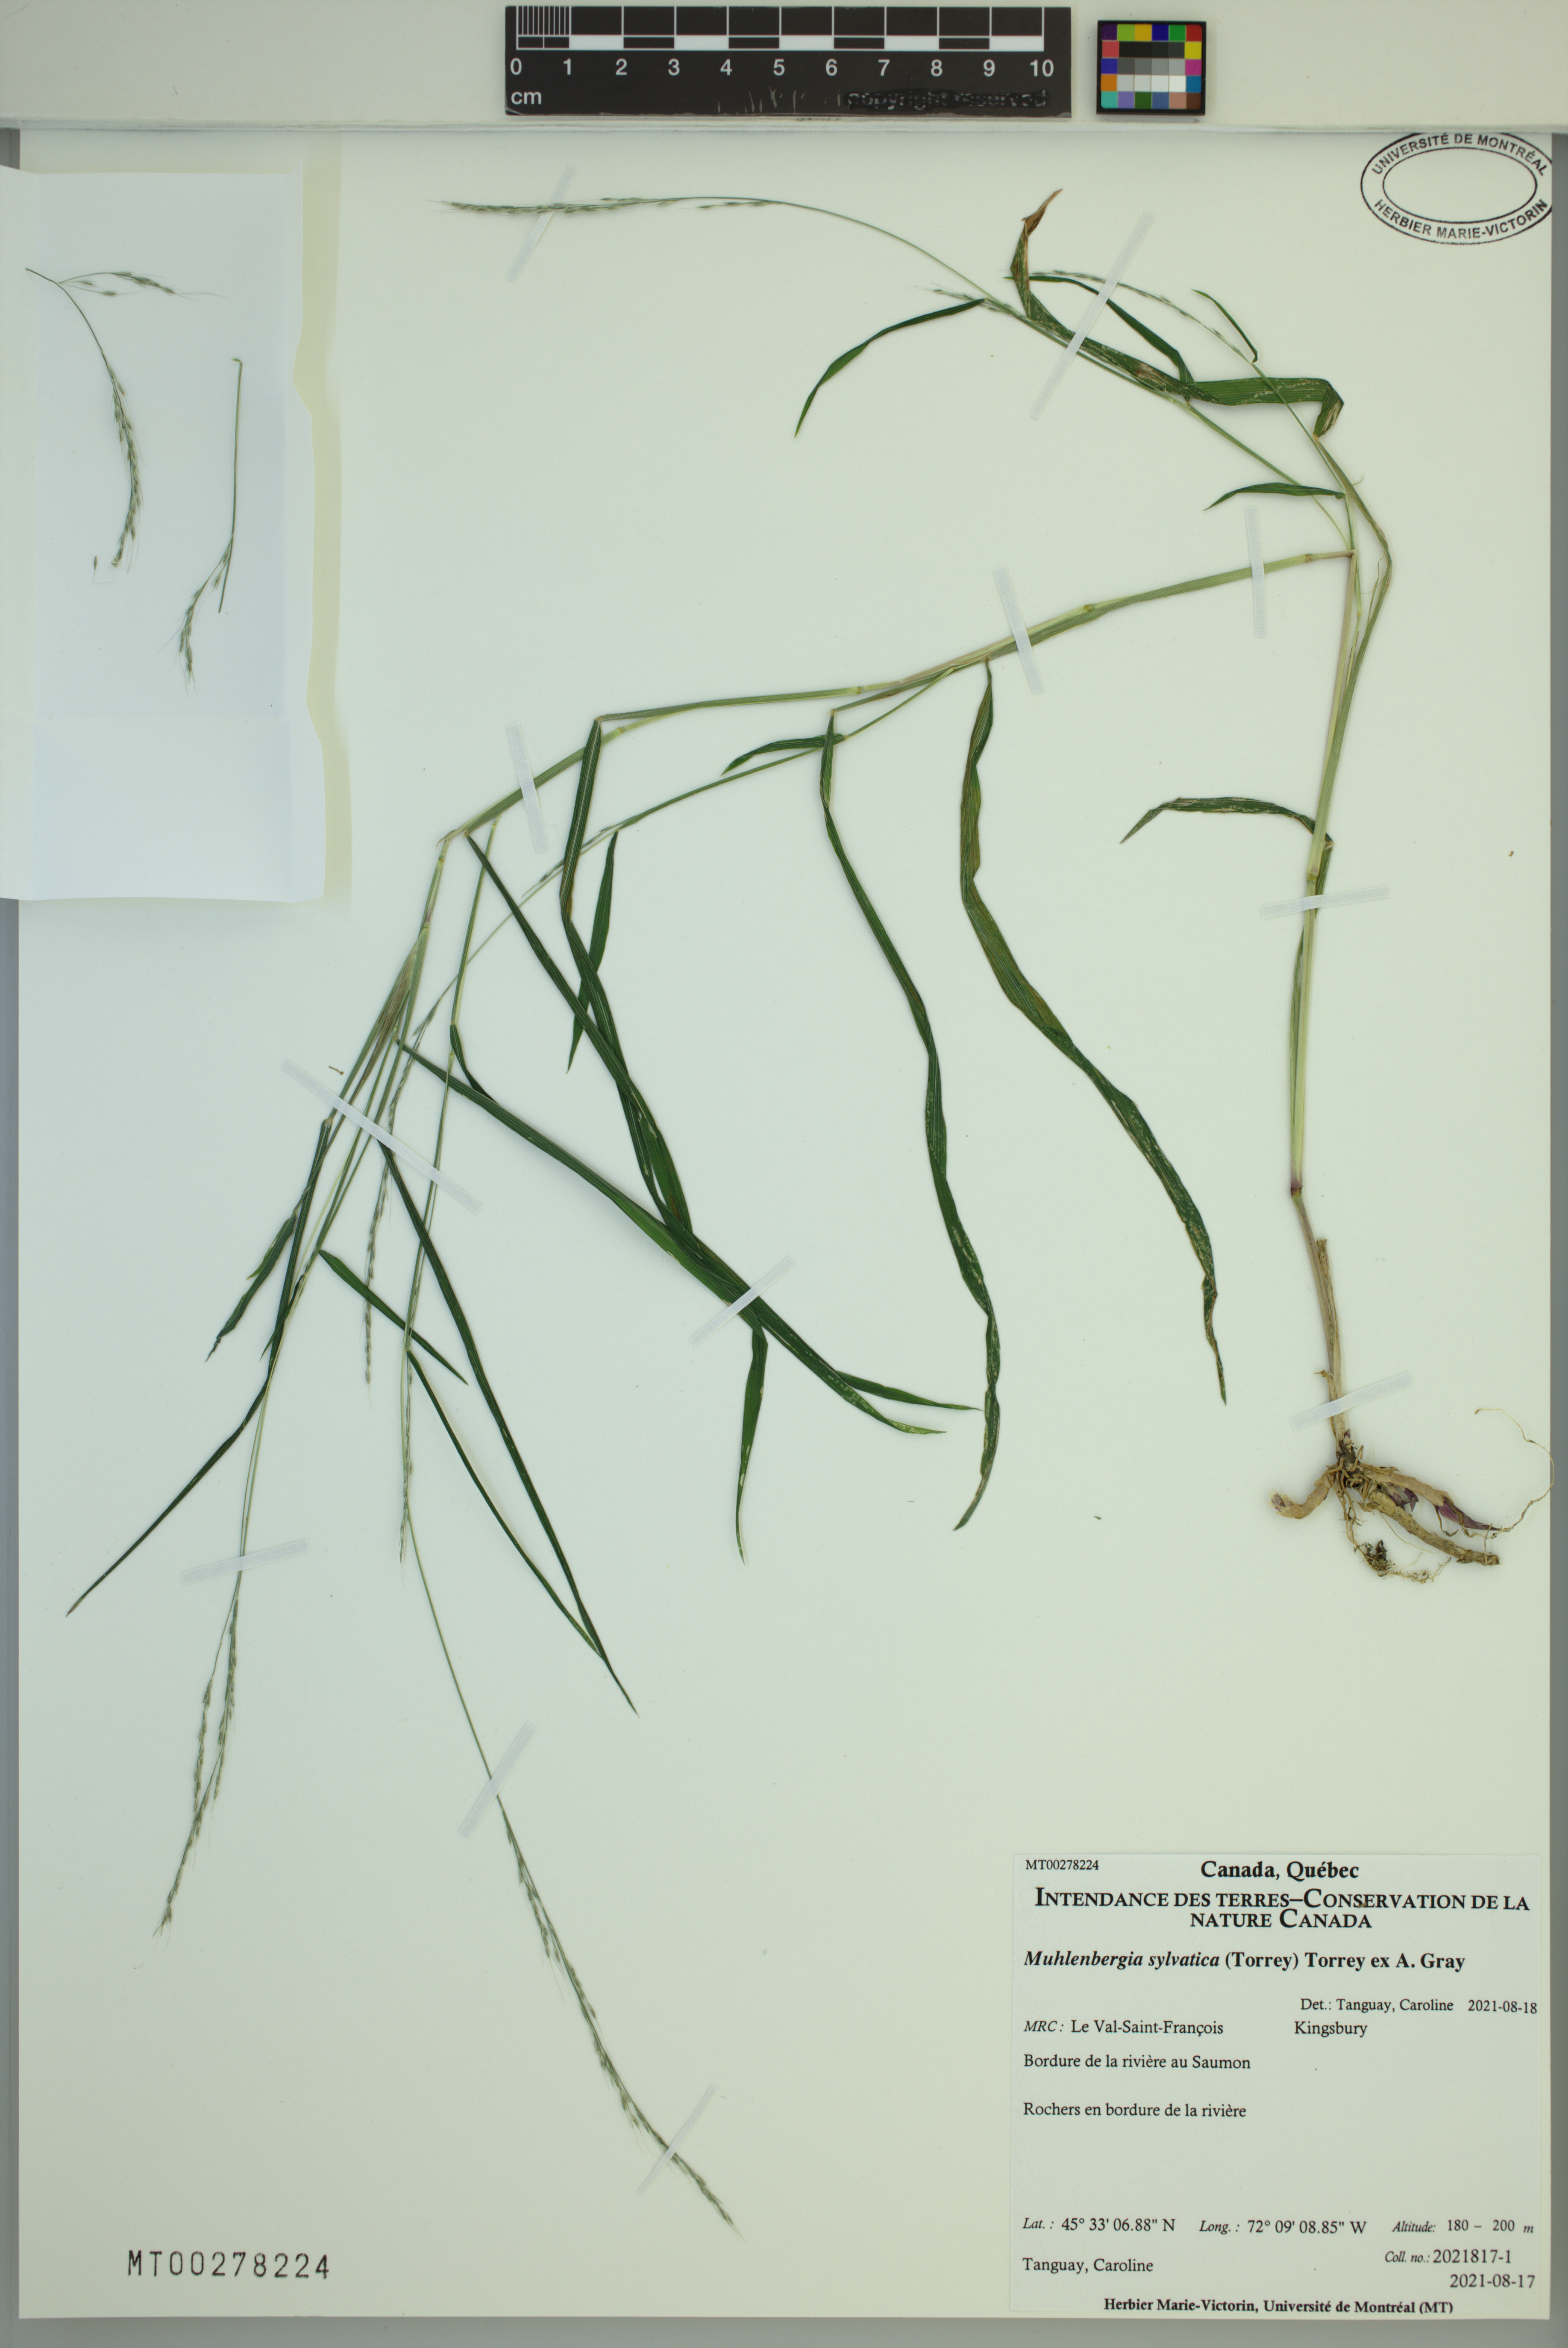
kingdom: Plantae
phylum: Tracheophyta
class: Liliopsida
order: Poales
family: Poaceae
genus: Muhlenbergia
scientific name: Muhlenbergia sylvatica
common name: Woodland muhly
